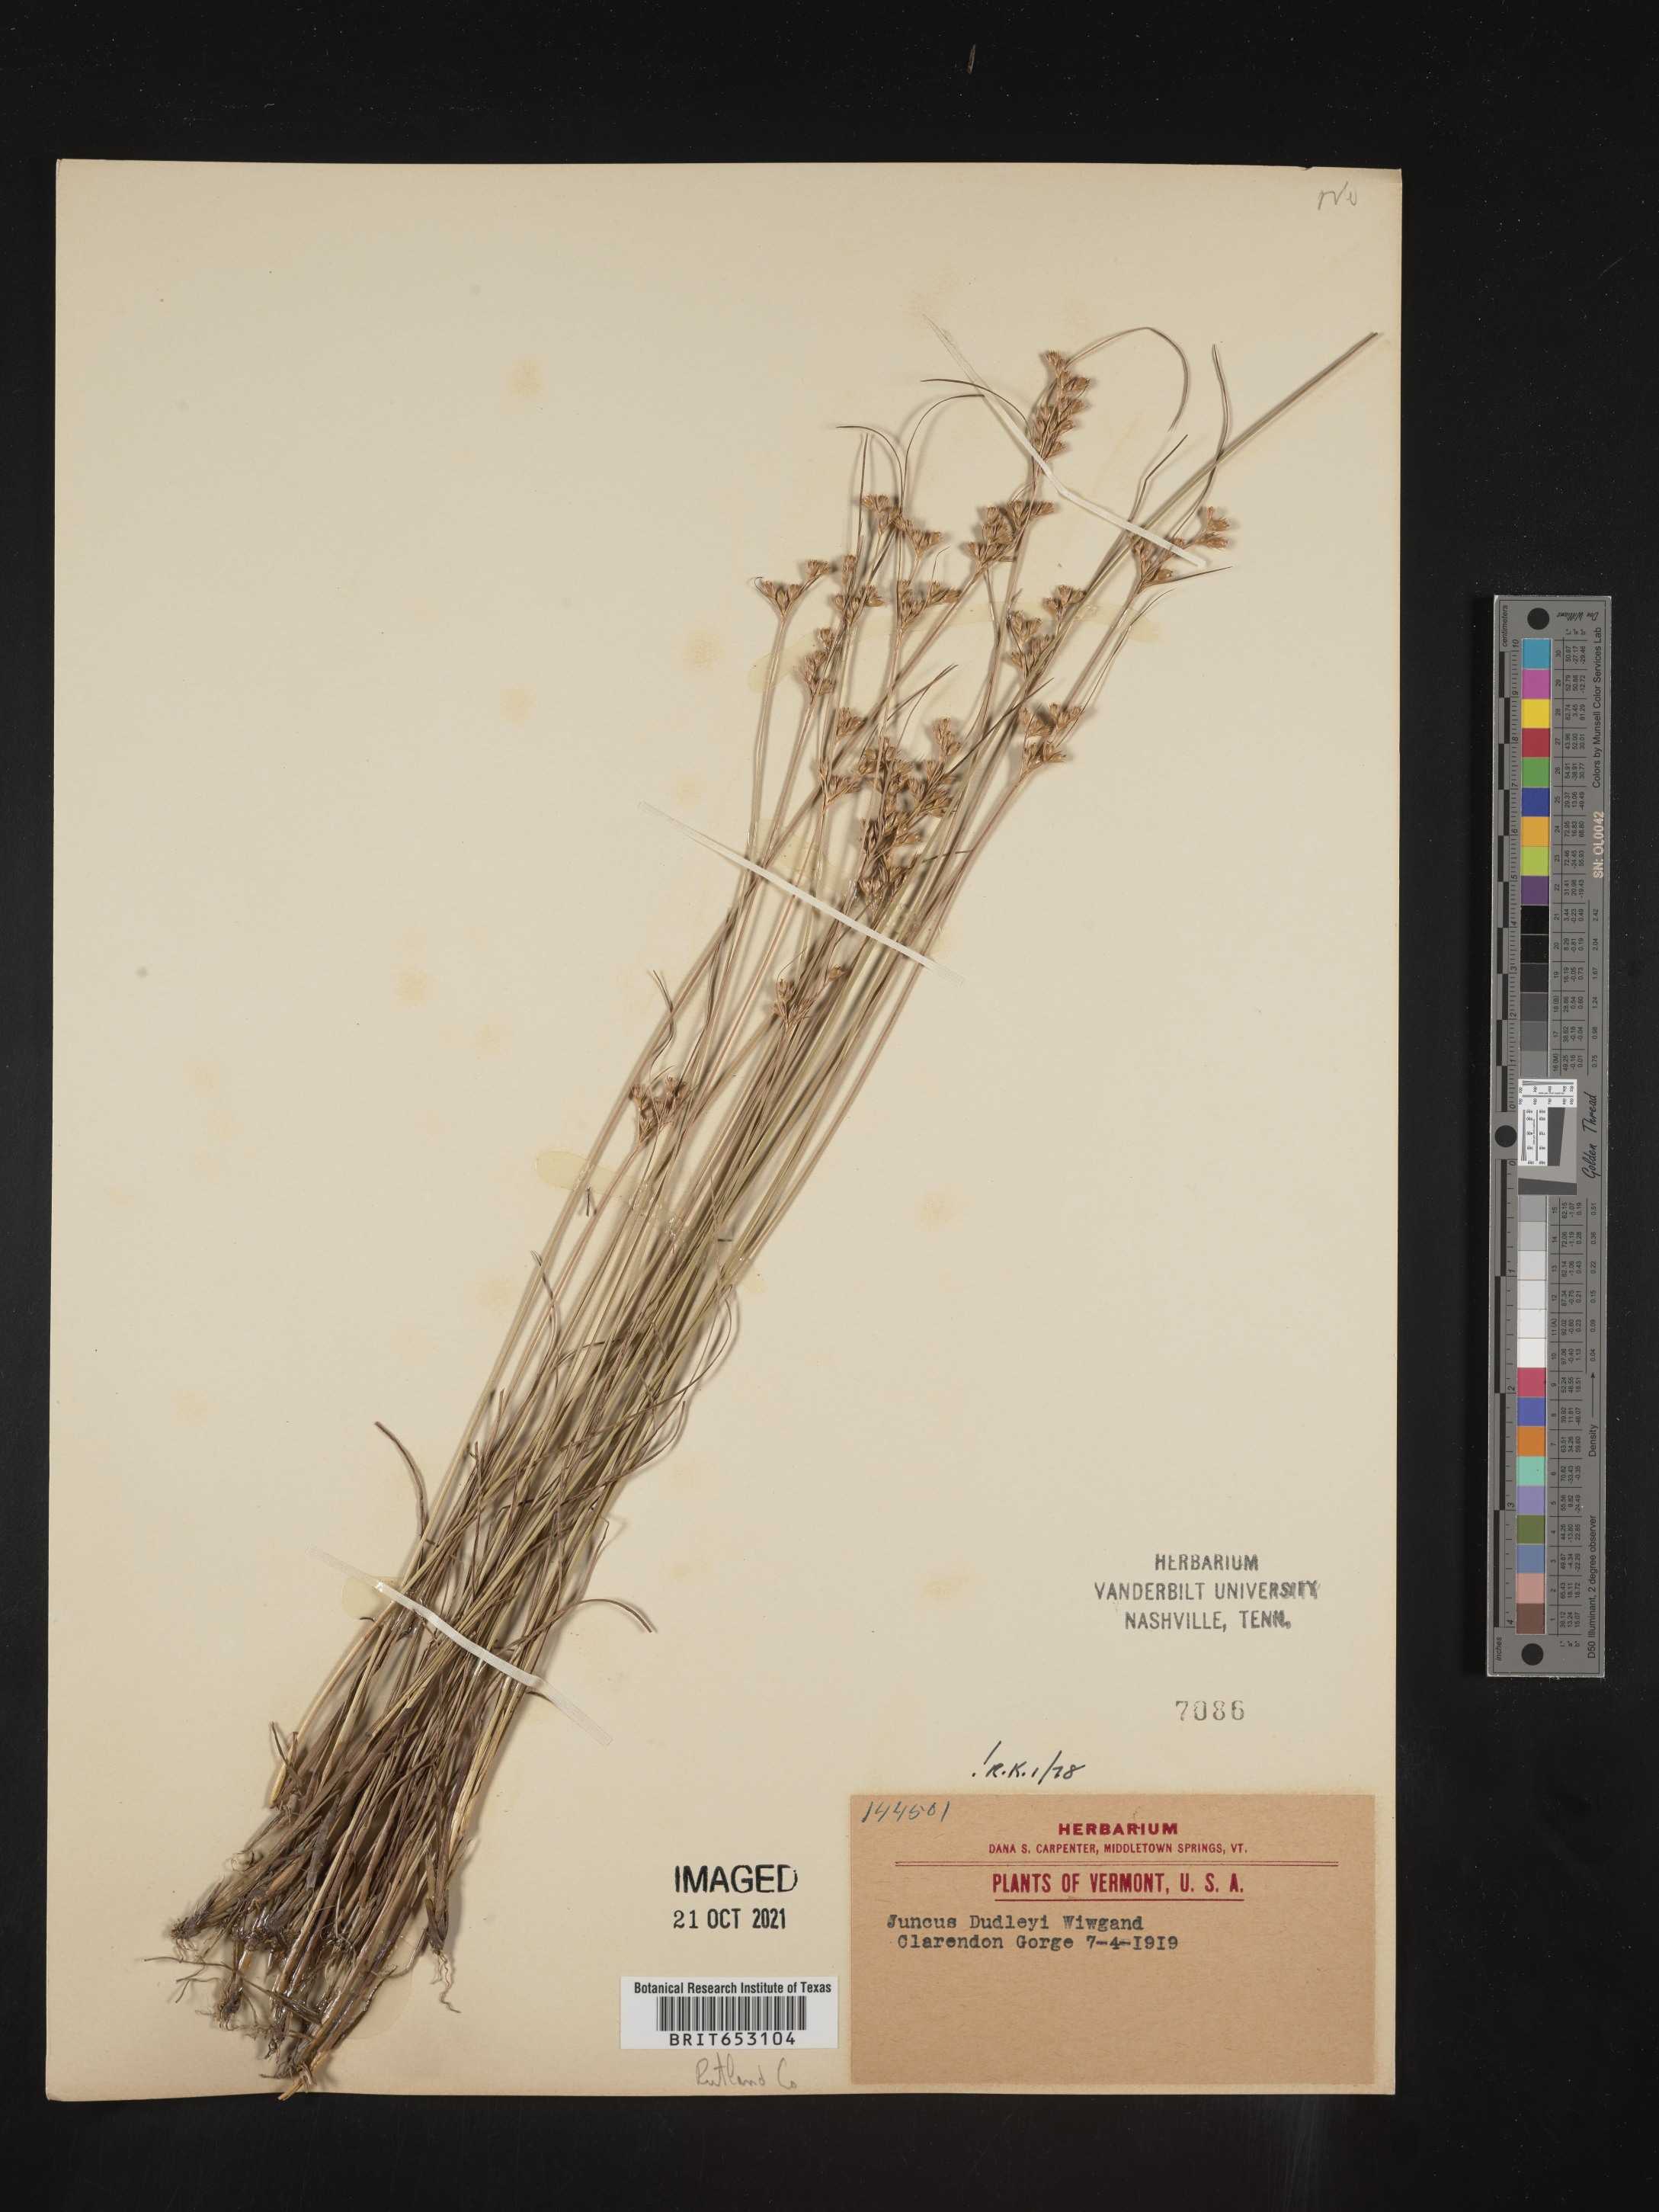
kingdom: Plantae
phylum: Tracheophyta
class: Liliopsida
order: Poales
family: Juncaceae
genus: Juncus
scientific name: Juncus dudleyi
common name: Dudley's rush
